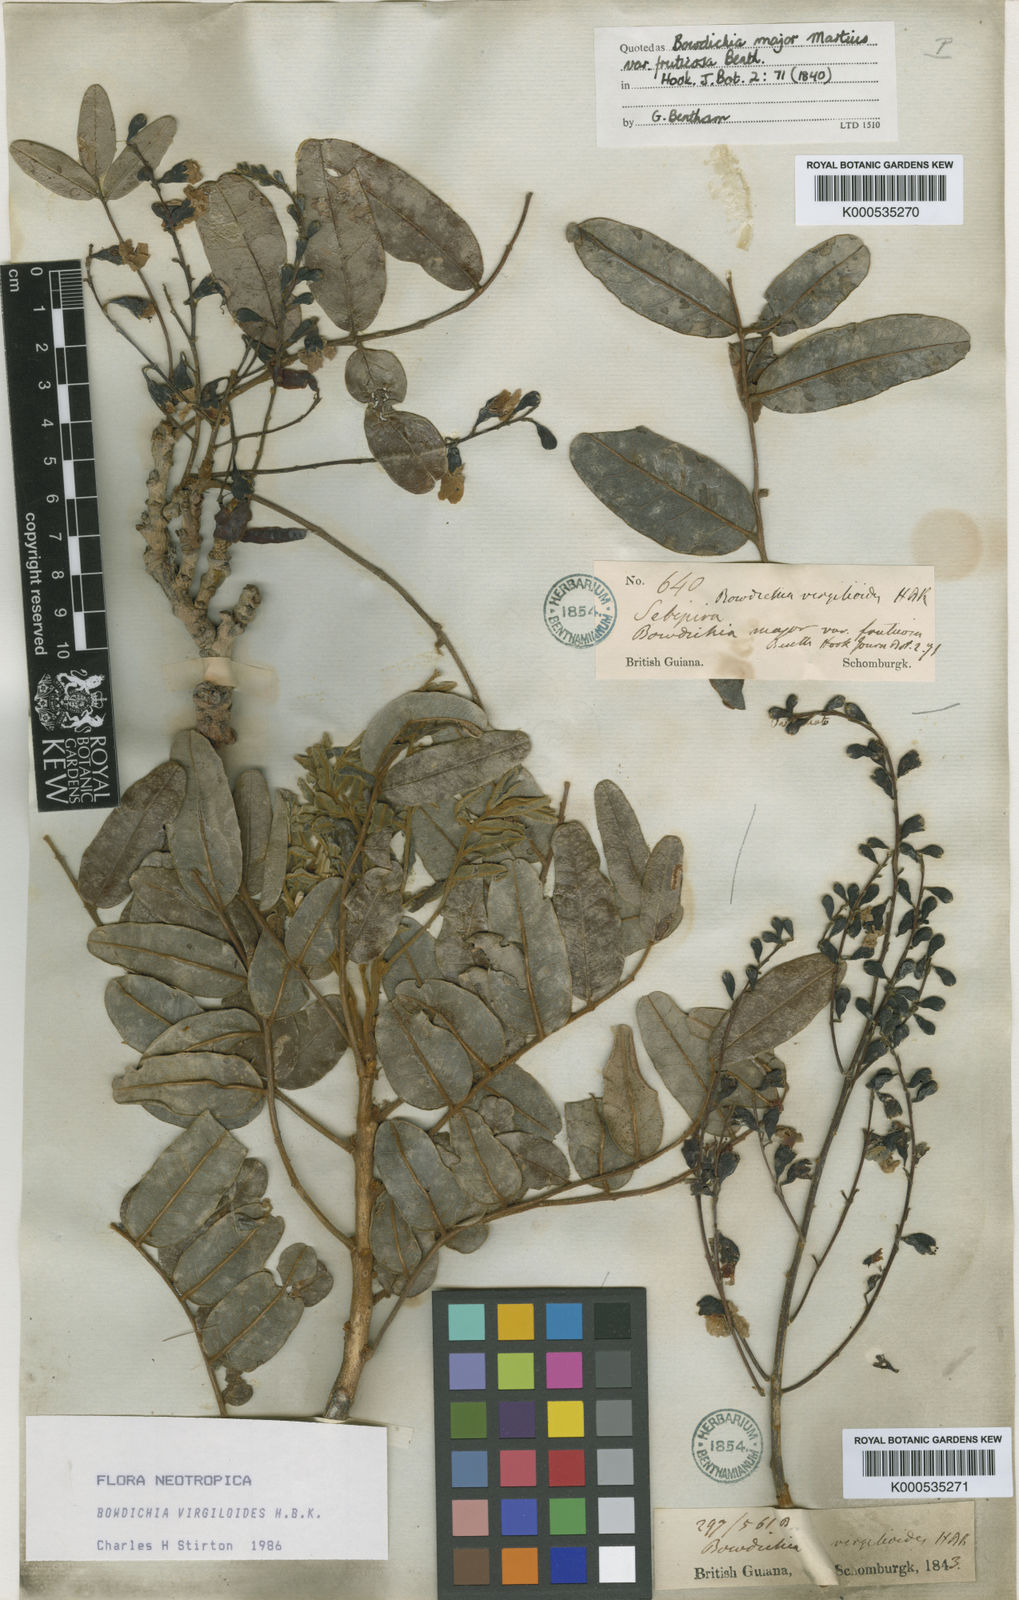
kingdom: Plantae
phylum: Tracheophyta
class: Magnoliopsida
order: Fabales
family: Fabaceae
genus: Bowdichia
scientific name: Bowdichia virgilioides
